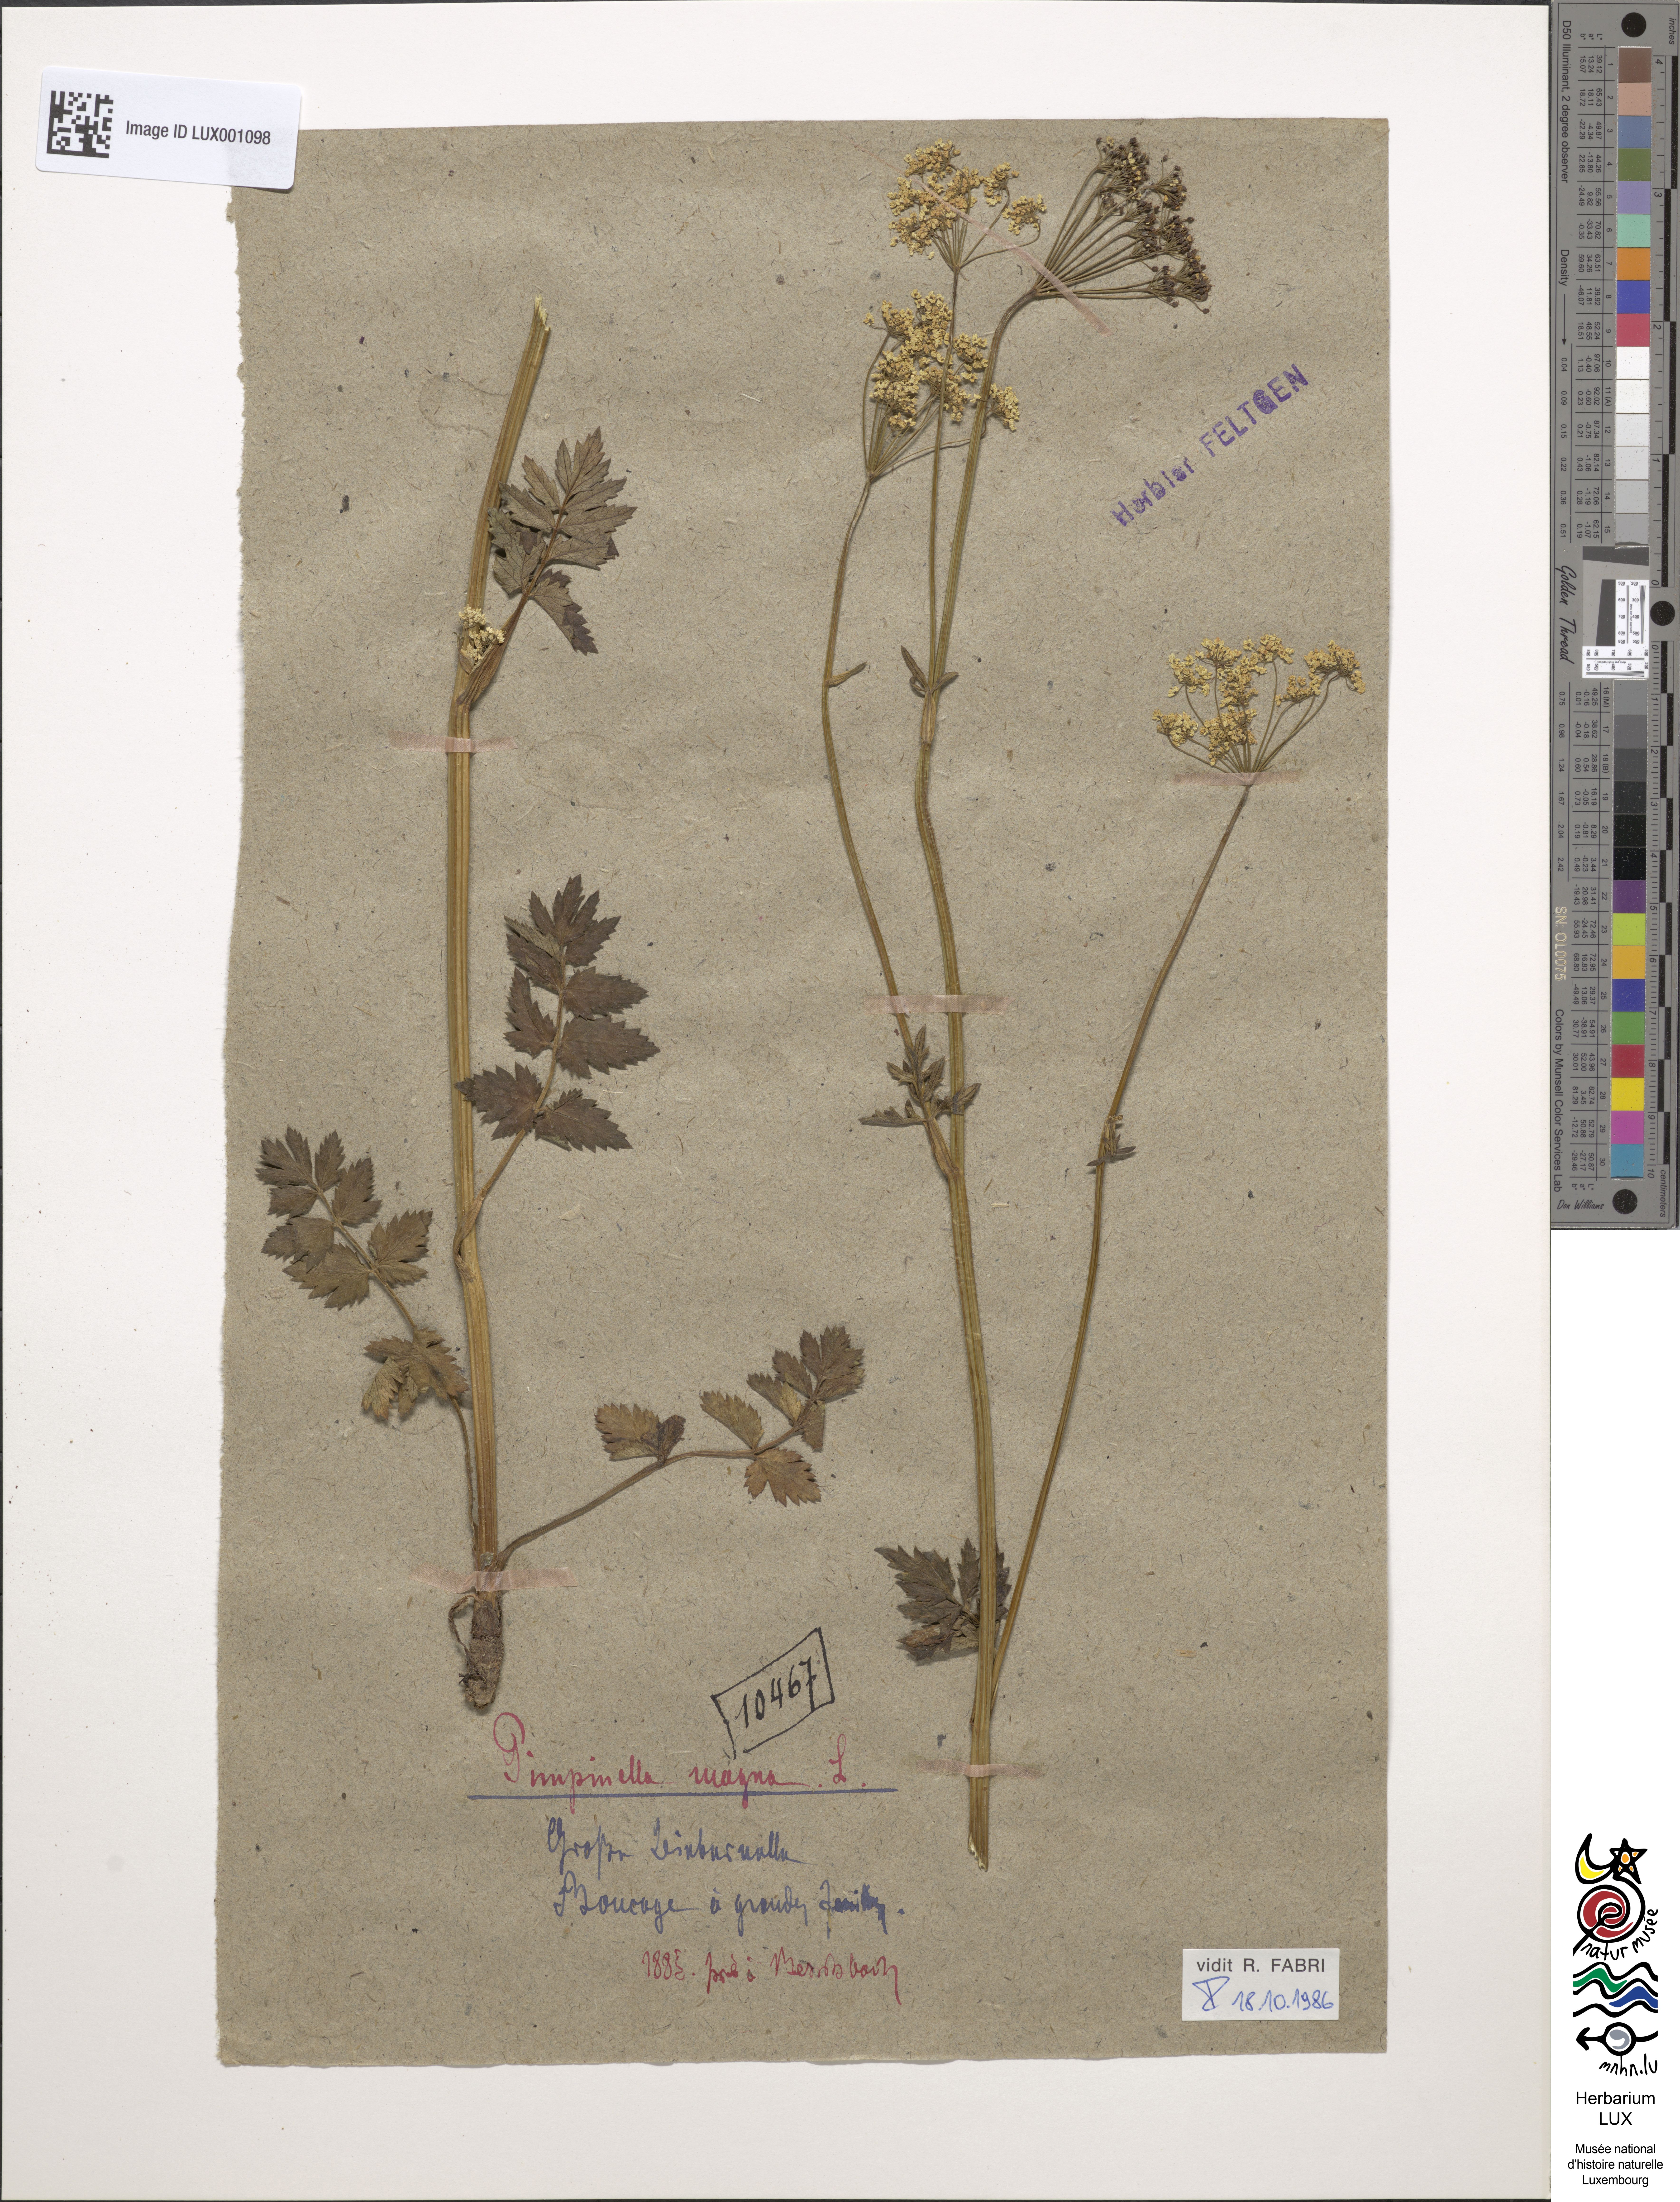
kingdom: Plantae
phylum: Tracheophyta
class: Magnoliopsida
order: Apiales
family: Apiaceae
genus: Pimpinella
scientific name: Pimpinella major
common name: Greater burnet-saxifrage
